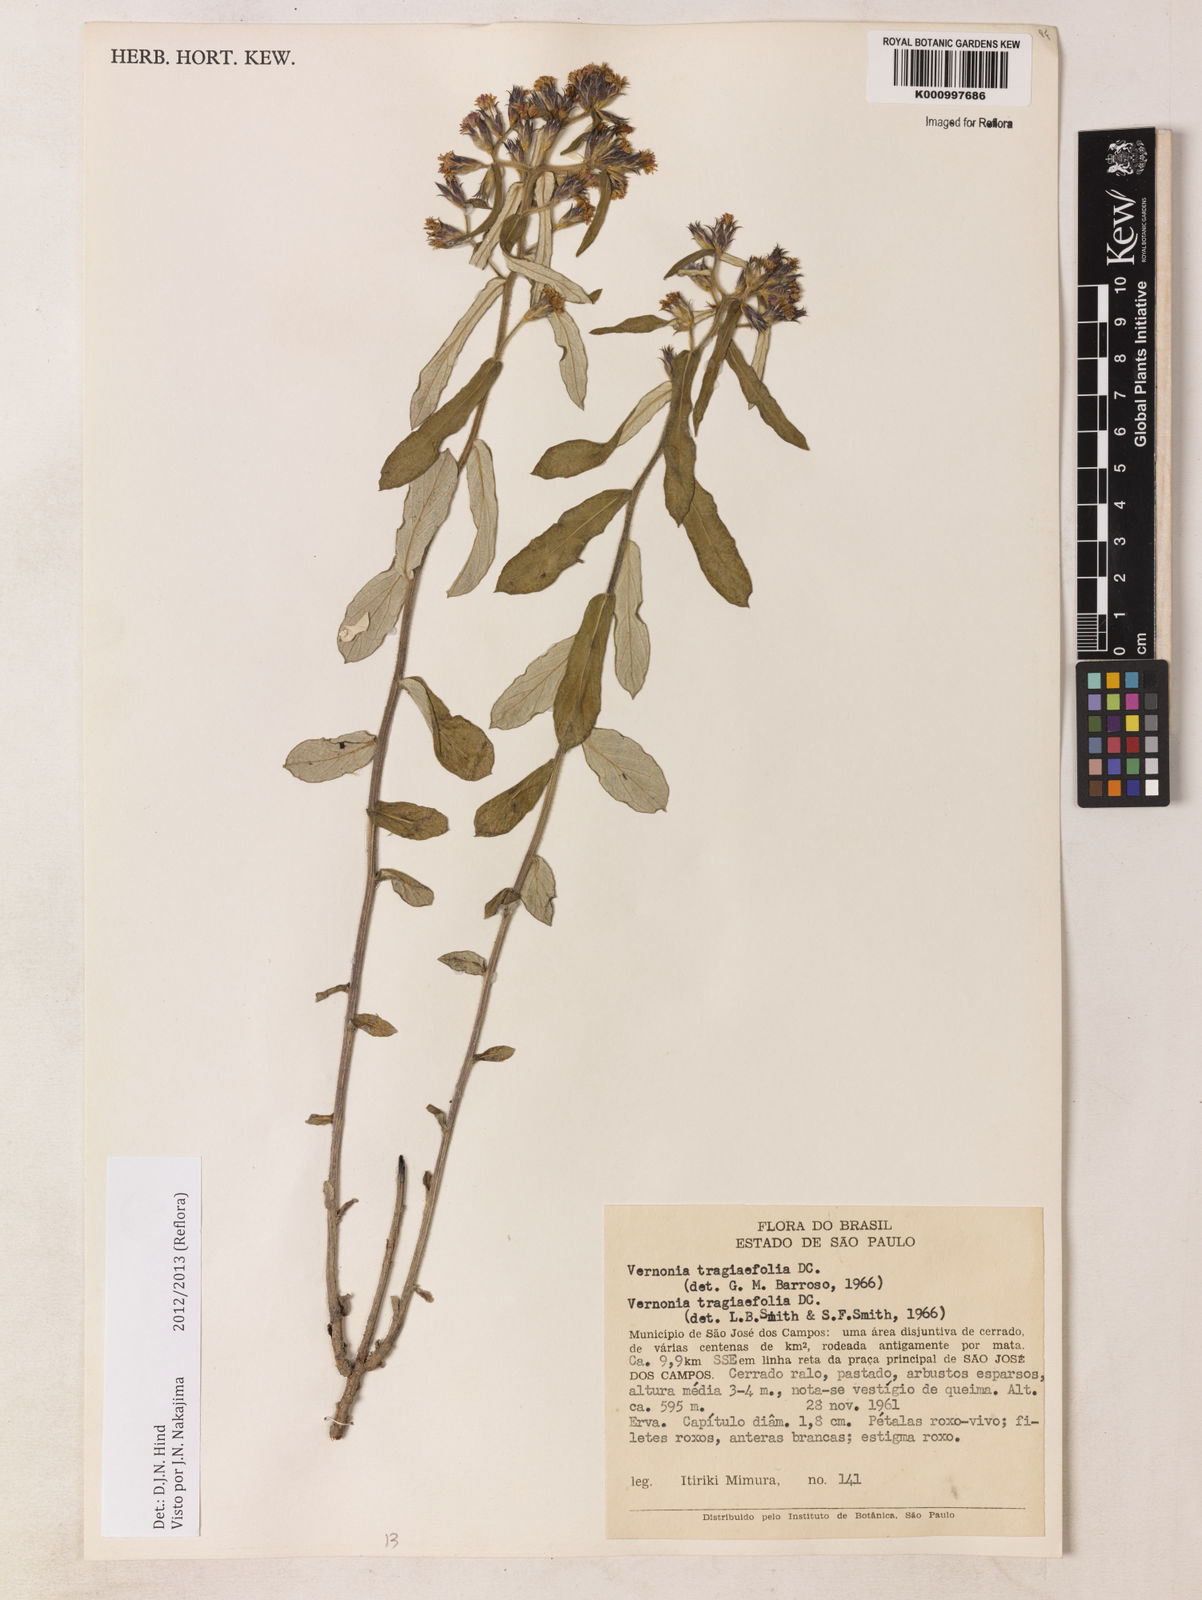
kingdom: Plantae
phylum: Tracheophyta
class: Magnoliopsida
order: Asterales
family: Asteraceae
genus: Vernonia
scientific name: Vernonia
